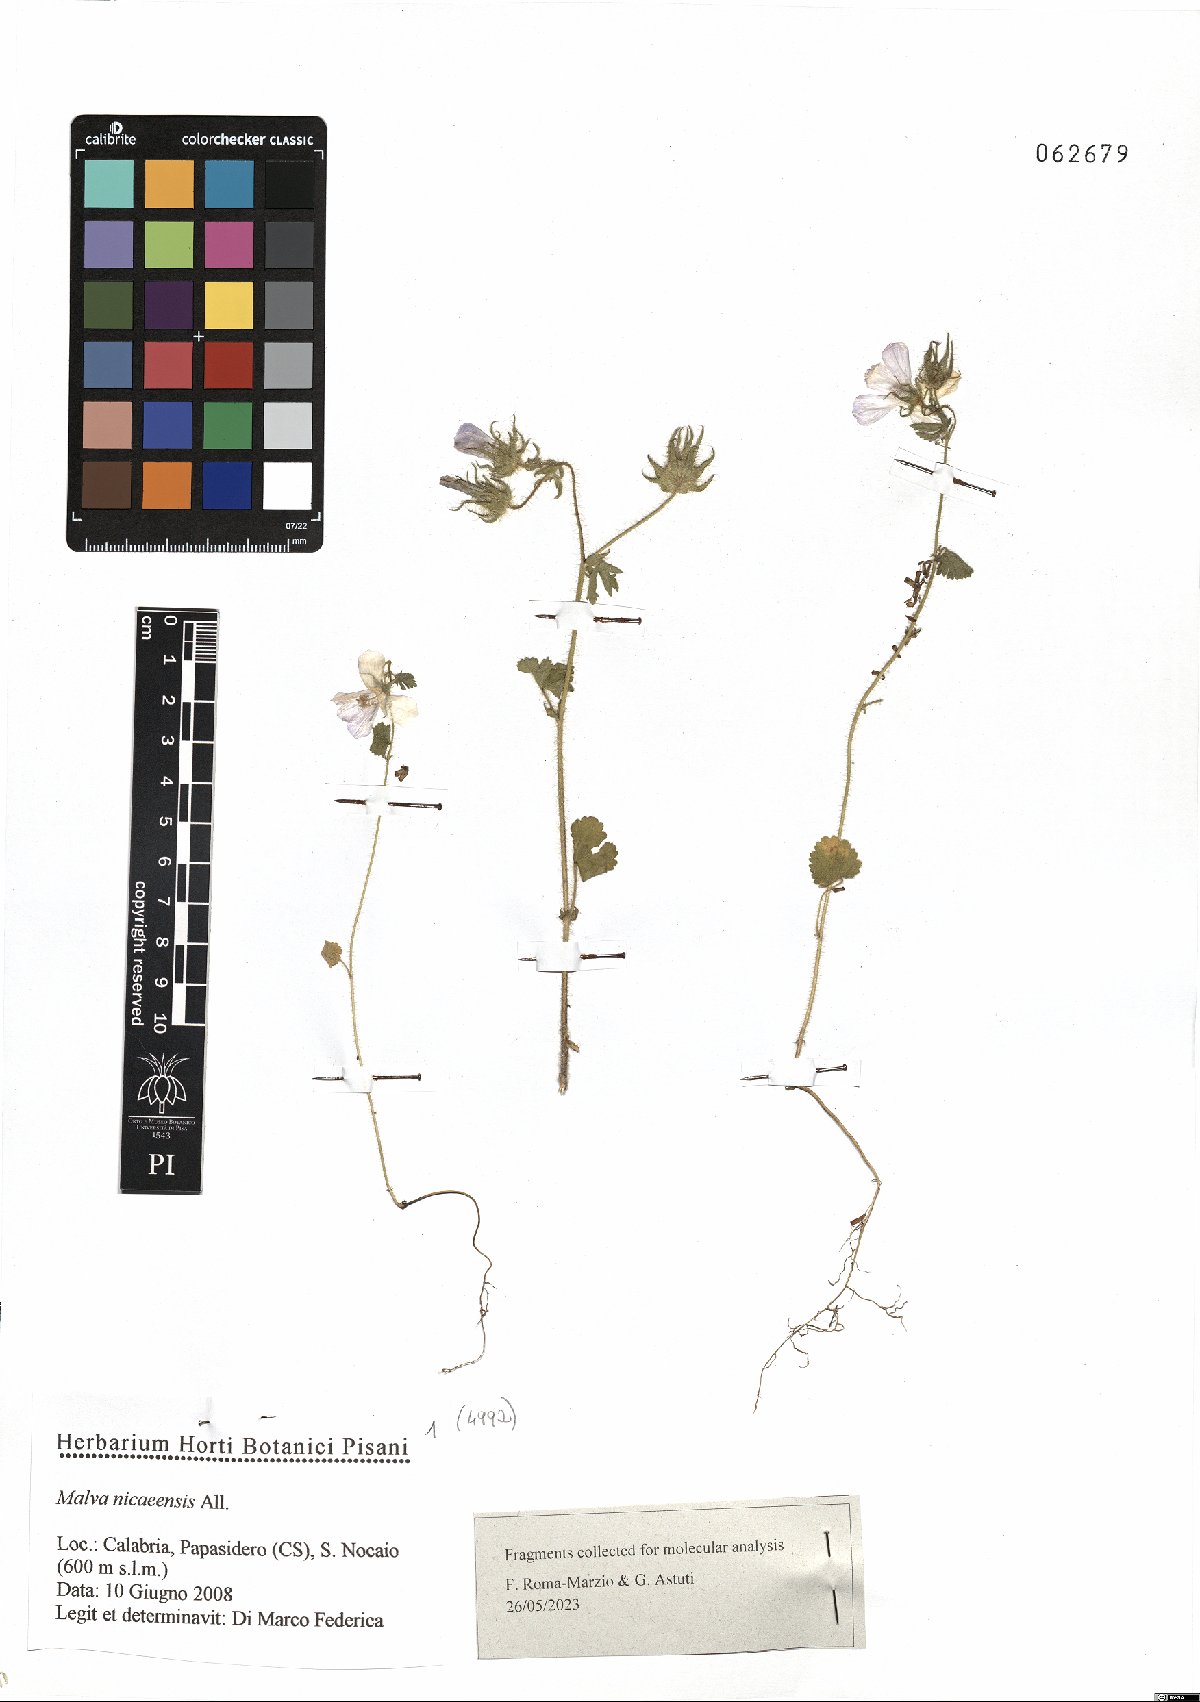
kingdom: Plantae
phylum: Tracheophyta
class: Magnoliopsida
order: Malvales
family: Malvaceae
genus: Malva
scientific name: Malva nicaeensis
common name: French mallow
